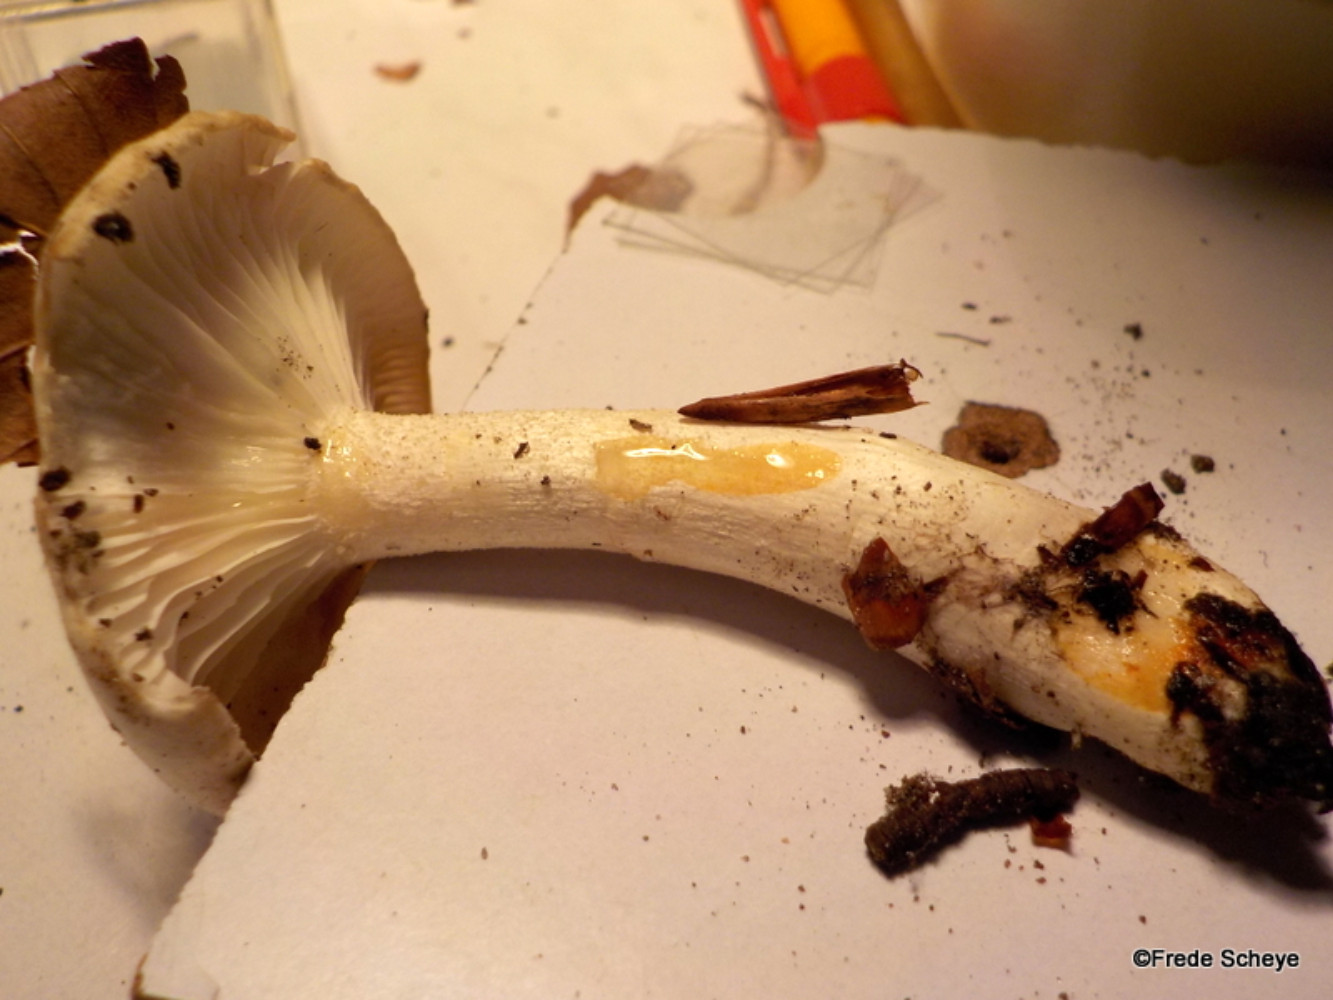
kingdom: Fungi
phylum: Basidiomycota
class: Agaricomycetes
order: Agaricales
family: Hygrophoraceae
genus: Hygrophorus
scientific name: Hygrophorus eburneus
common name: elfenbens-sneglehat
